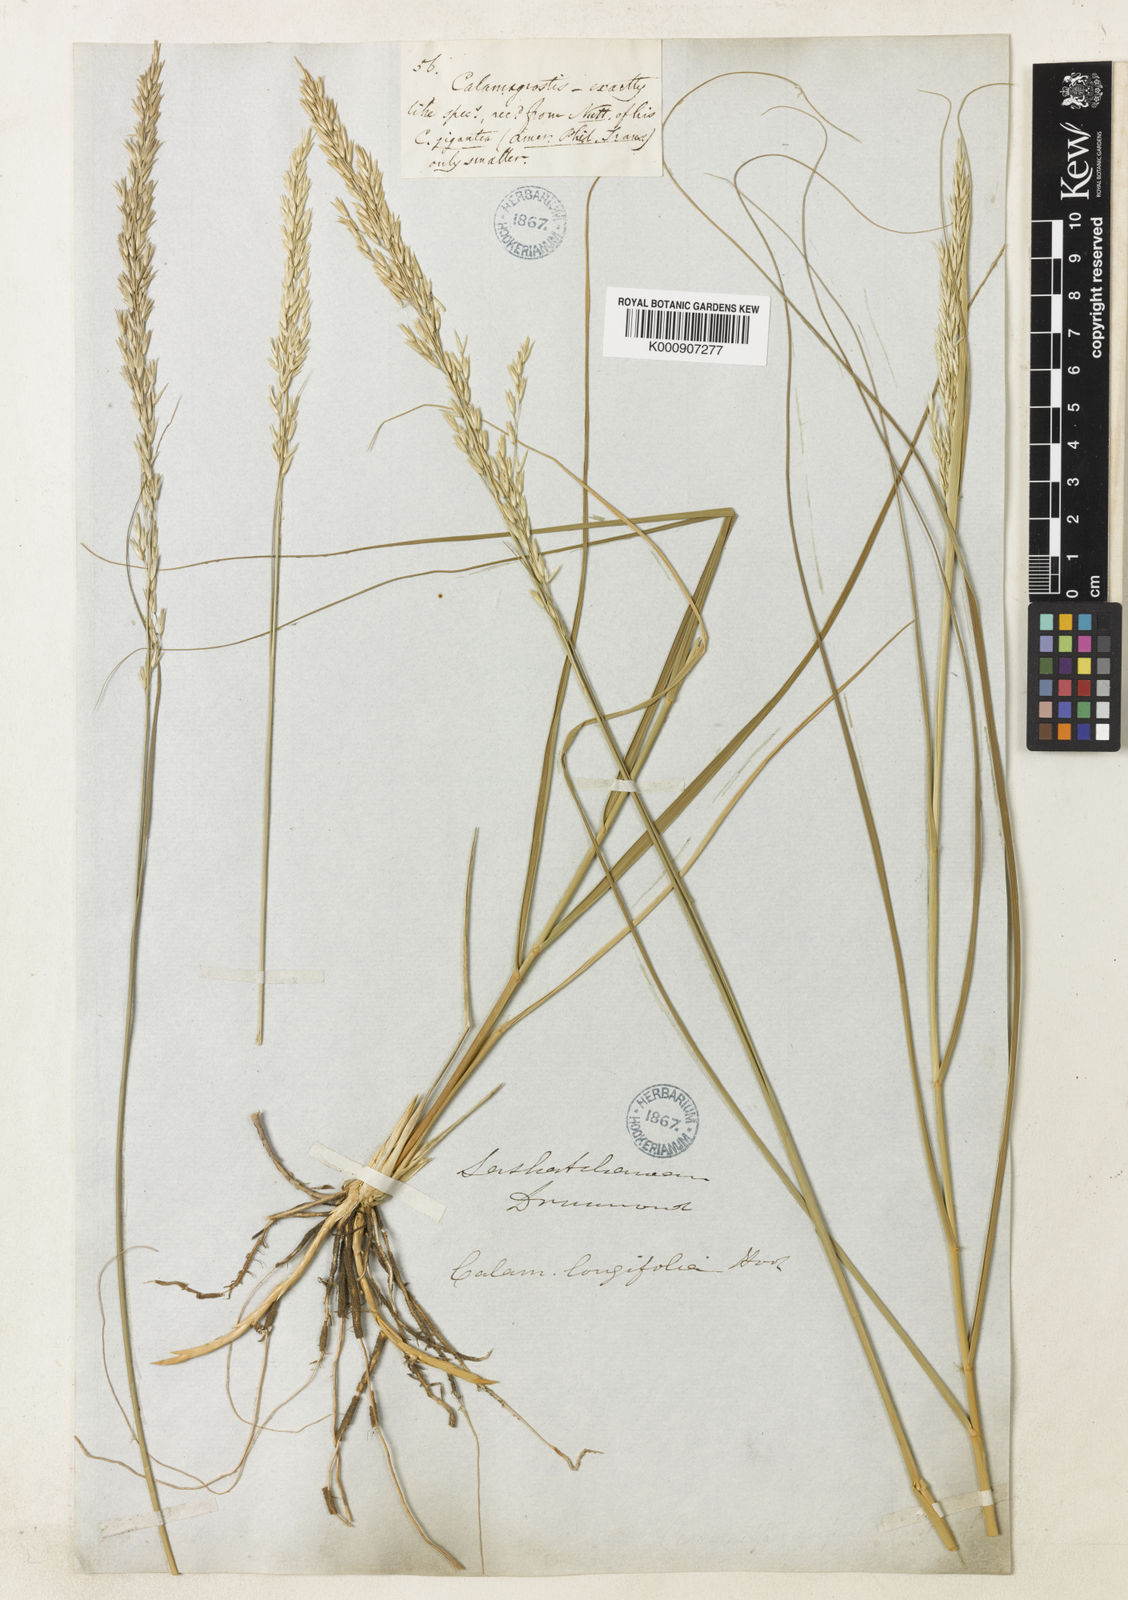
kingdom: Plantae
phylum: Tracheophyta
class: Liliopsida
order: Poales
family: Poaceae
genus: Sporobolus
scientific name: Sporobolus rigidus
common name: Prairie sandreed
